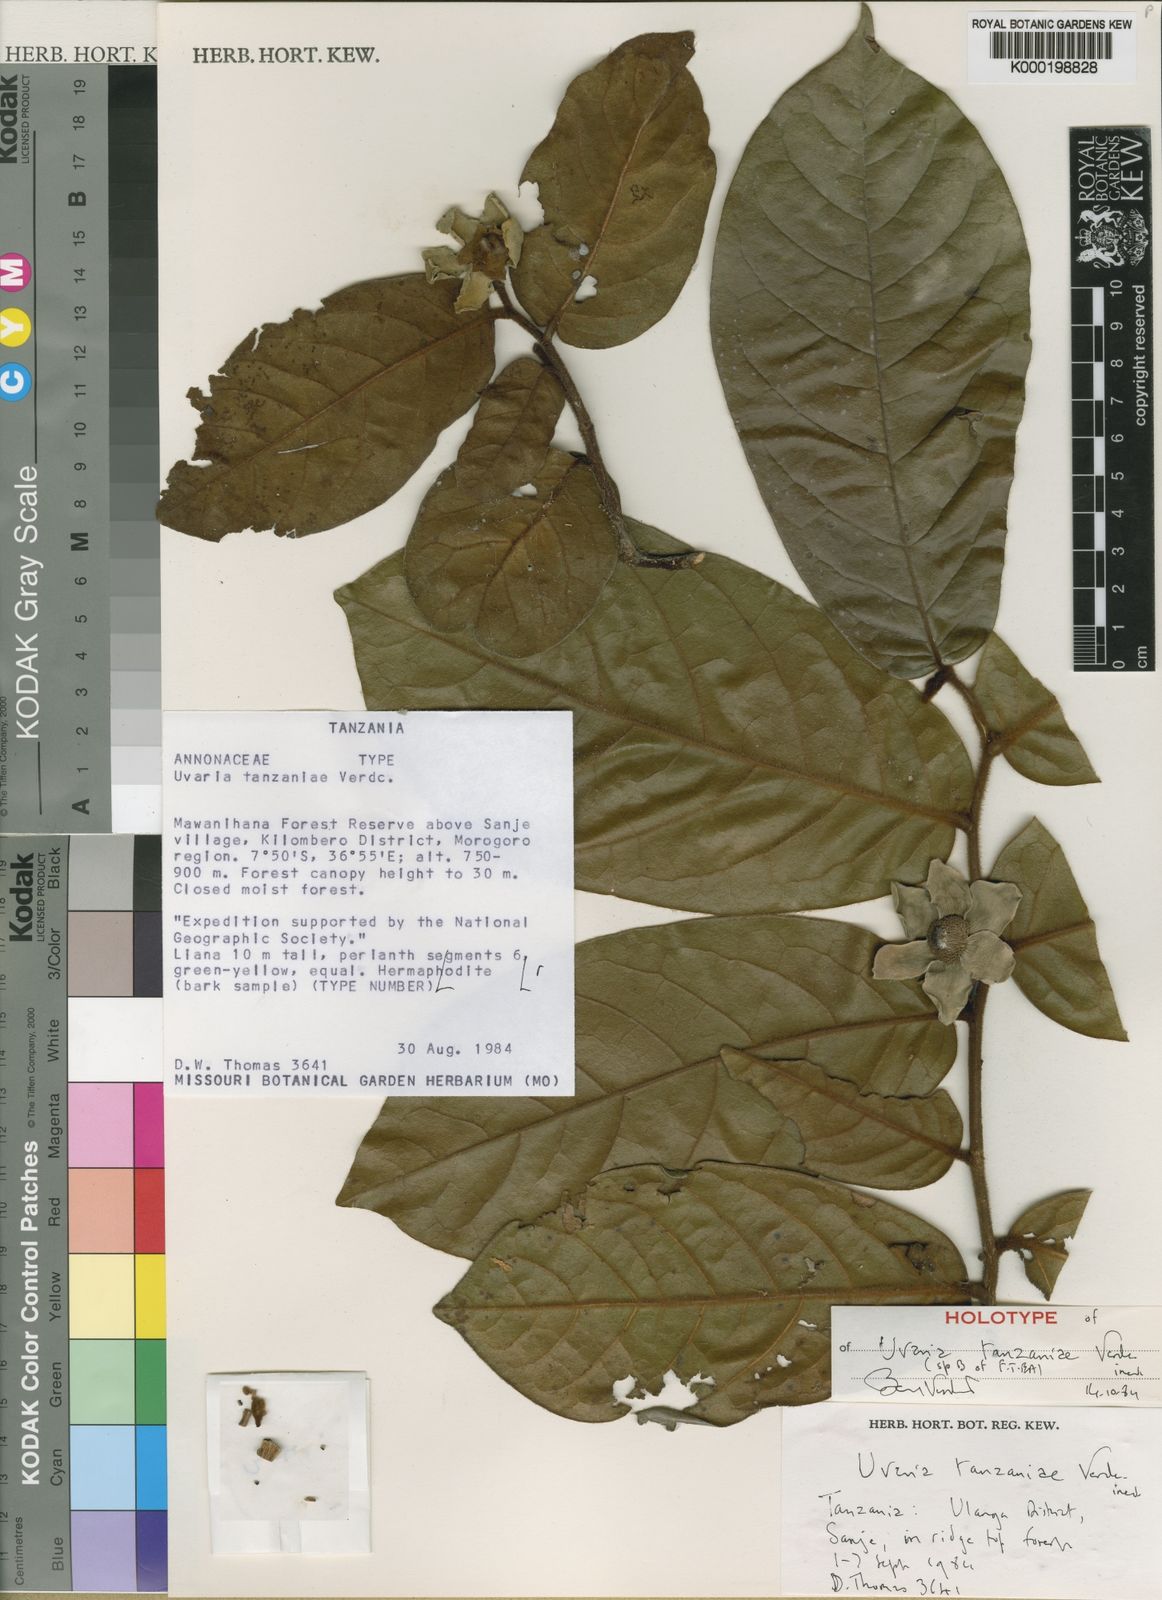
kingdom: Plantae
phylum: Tracheophyta
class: Magnoliopsida
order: Magnoliales
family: Annonaceae
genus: Uvaria
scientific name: Uvaria tanzaniae
